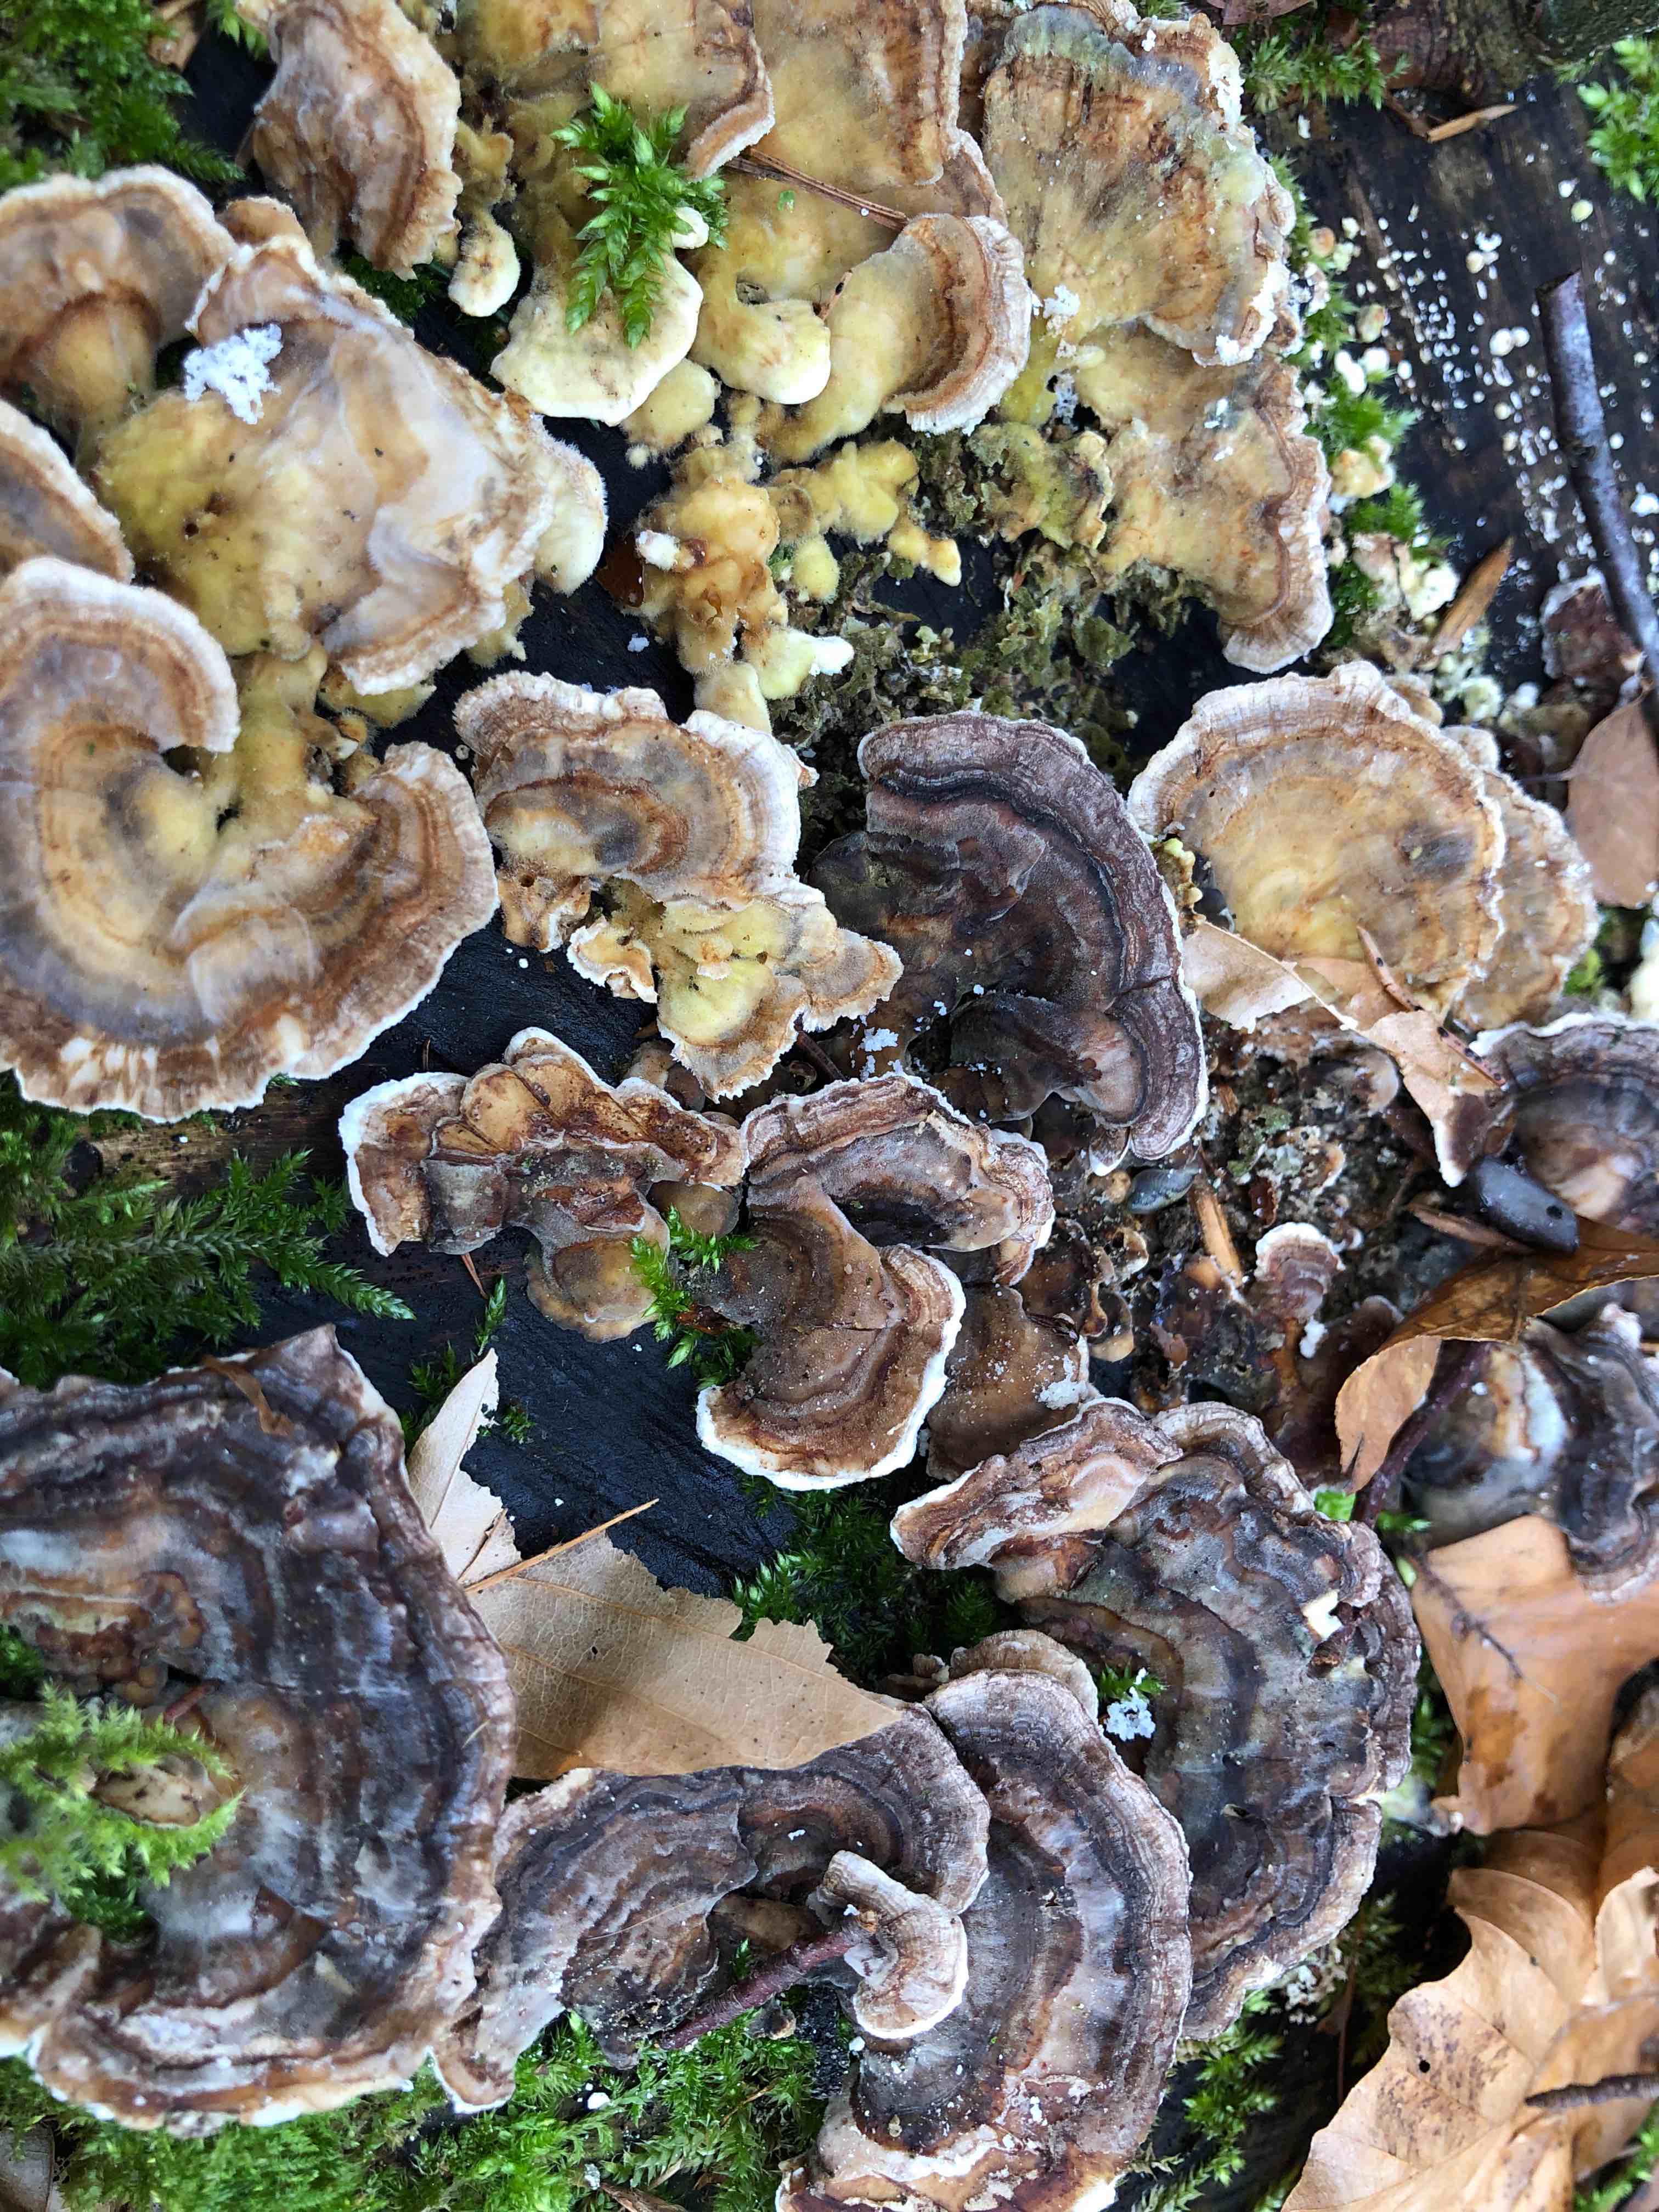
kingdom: Fungi
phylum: Basidiomycota
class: Agaricomycetes
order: Polyporales
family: Polyporaceae
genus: Trametes
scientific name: Trametes versicolor
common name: broget læderporesvamp
